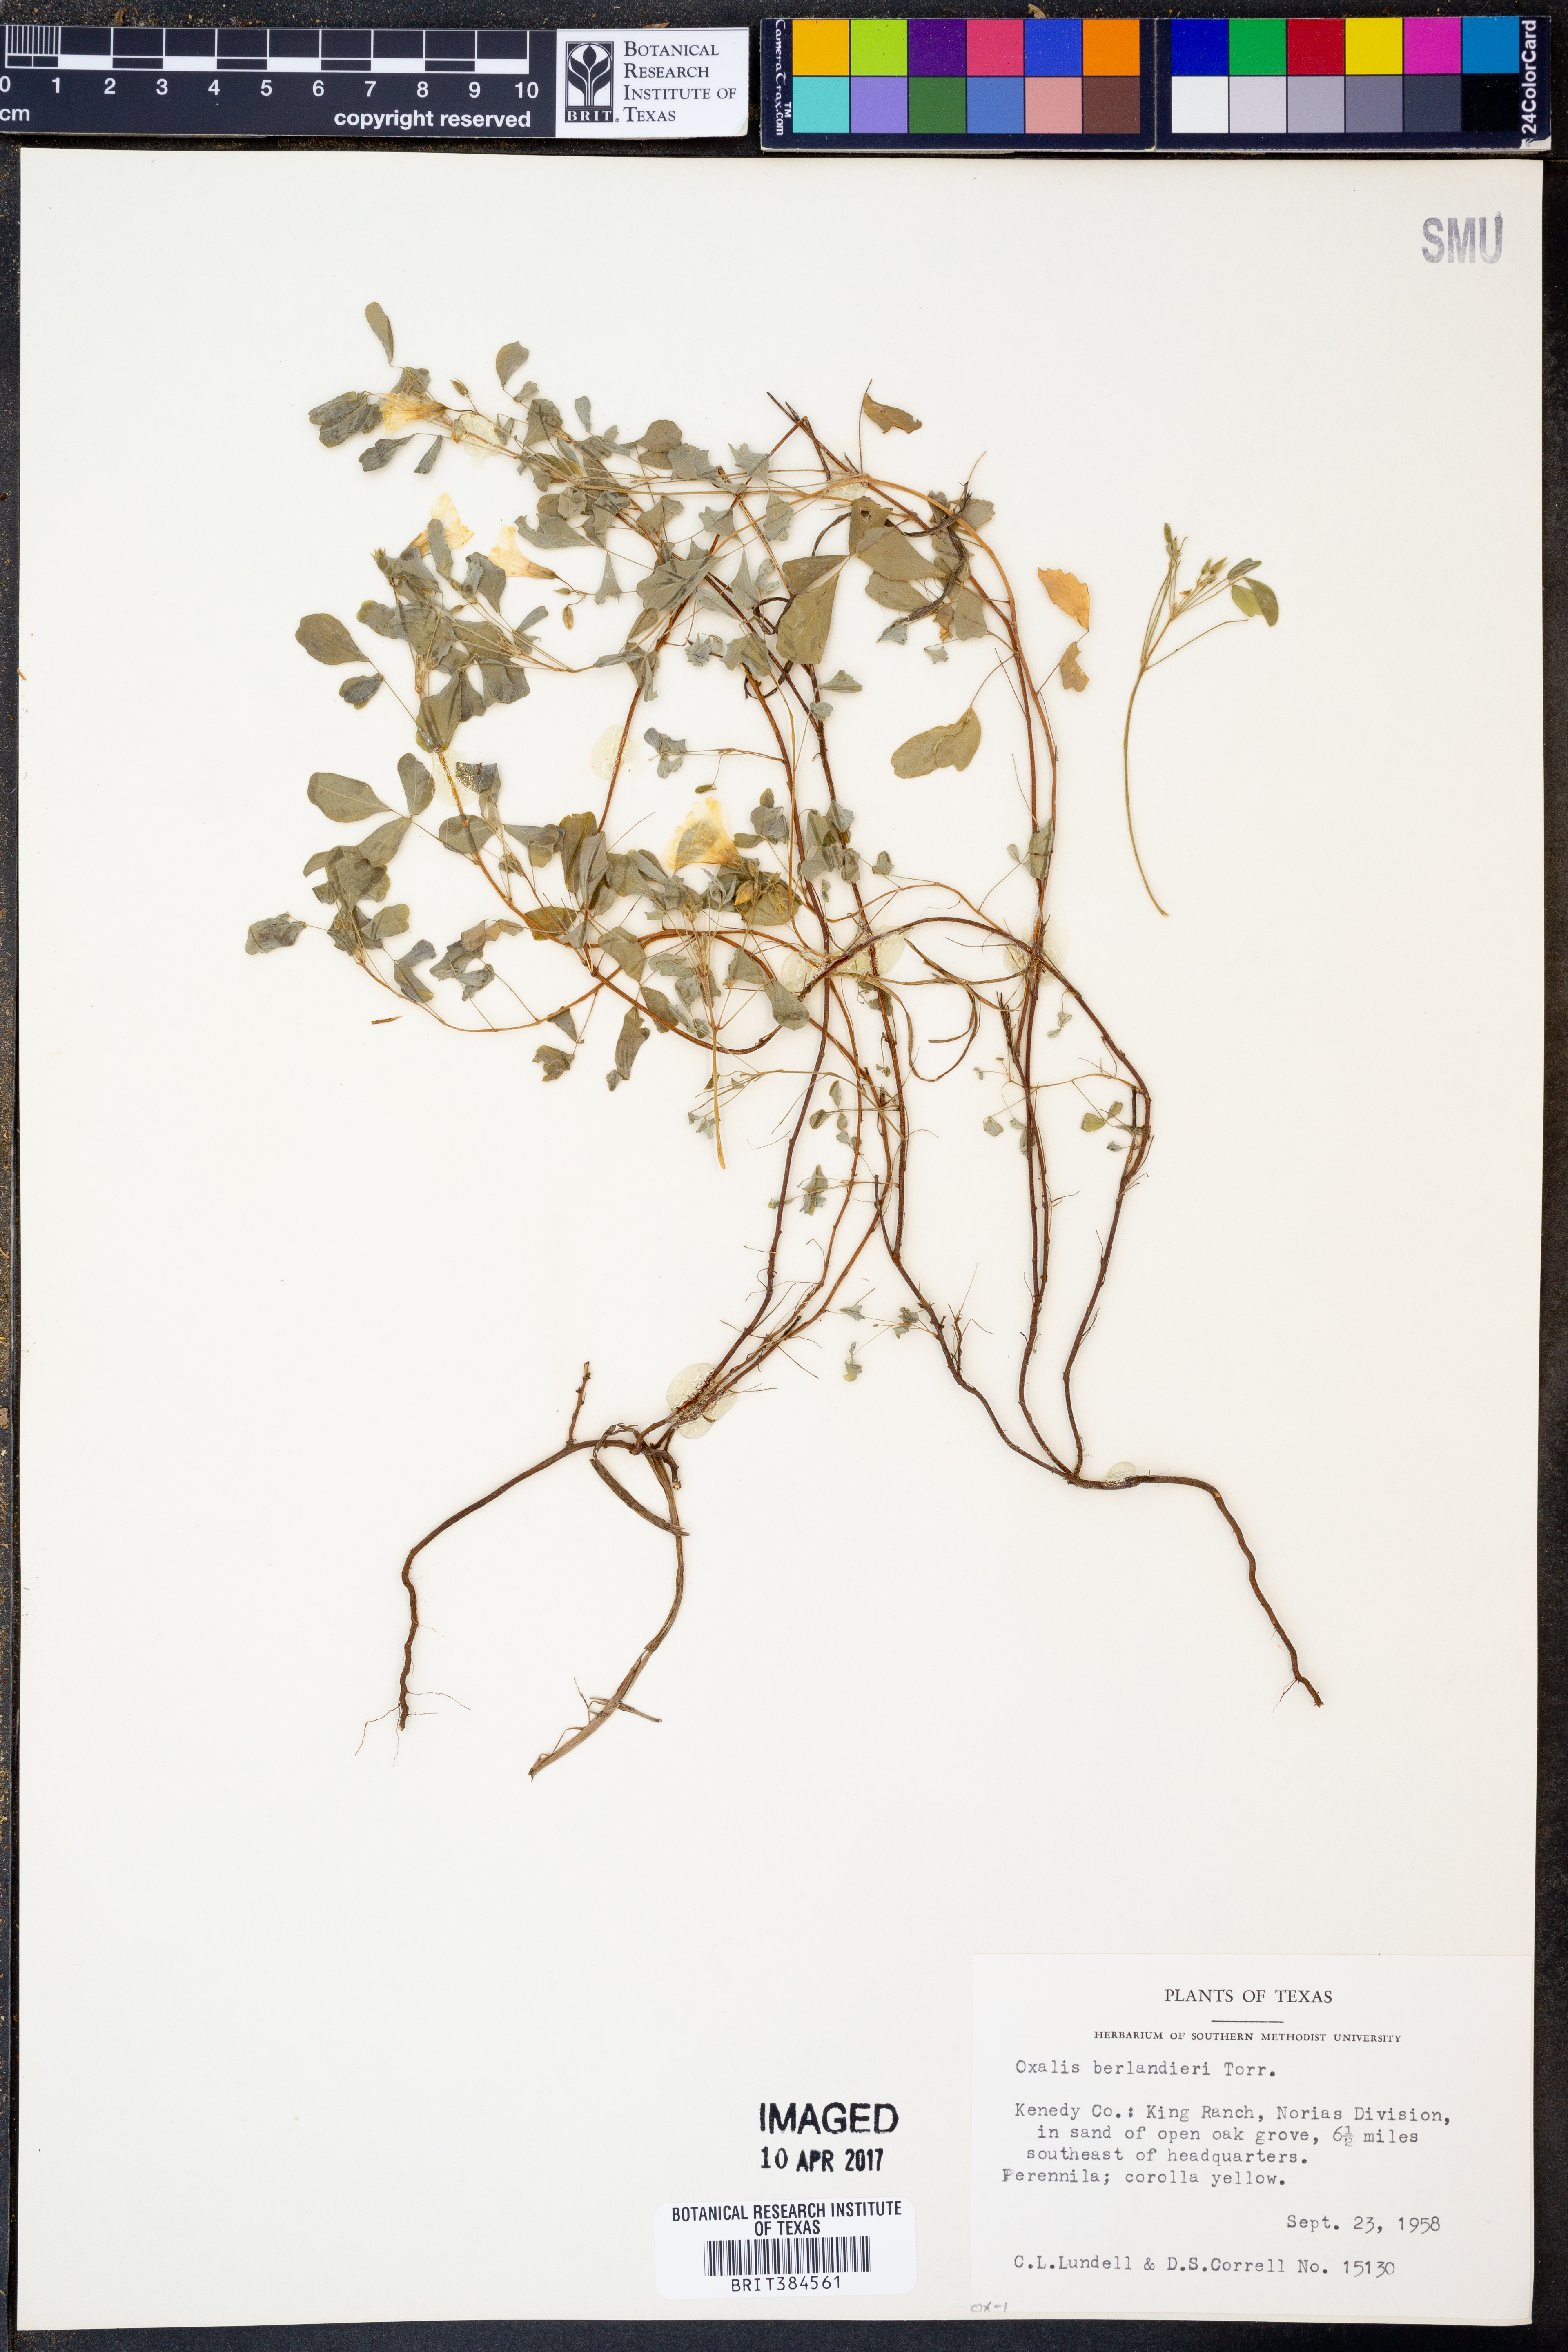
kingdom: Plantae
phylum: Tracheophyta
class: Magnoliopsida
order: Oxalidales
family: Oxalidaceae
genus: Oxalis
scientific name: Oxalis frutescens
